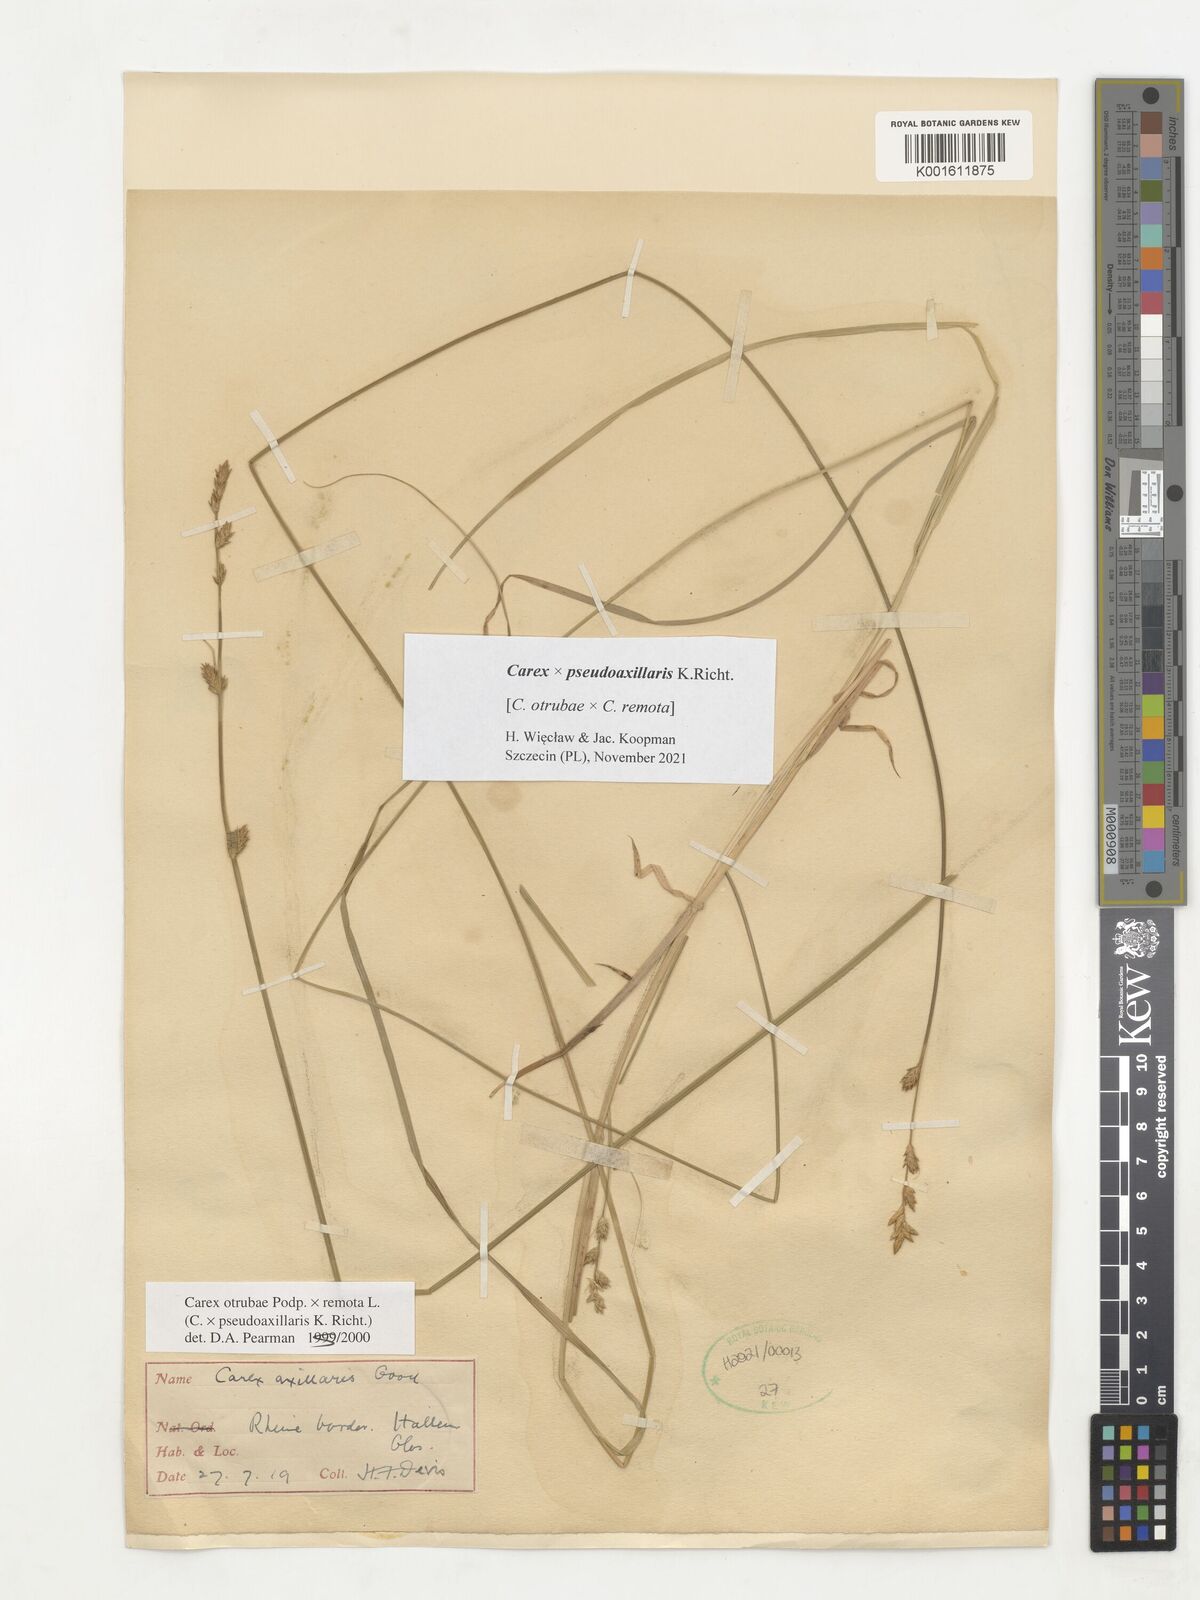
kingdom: Plantae
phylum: Tracheophyta
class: Liliopsida
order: Poales
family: Cyperaceae
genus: Carex
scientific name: Carex pseudoaxillaris
